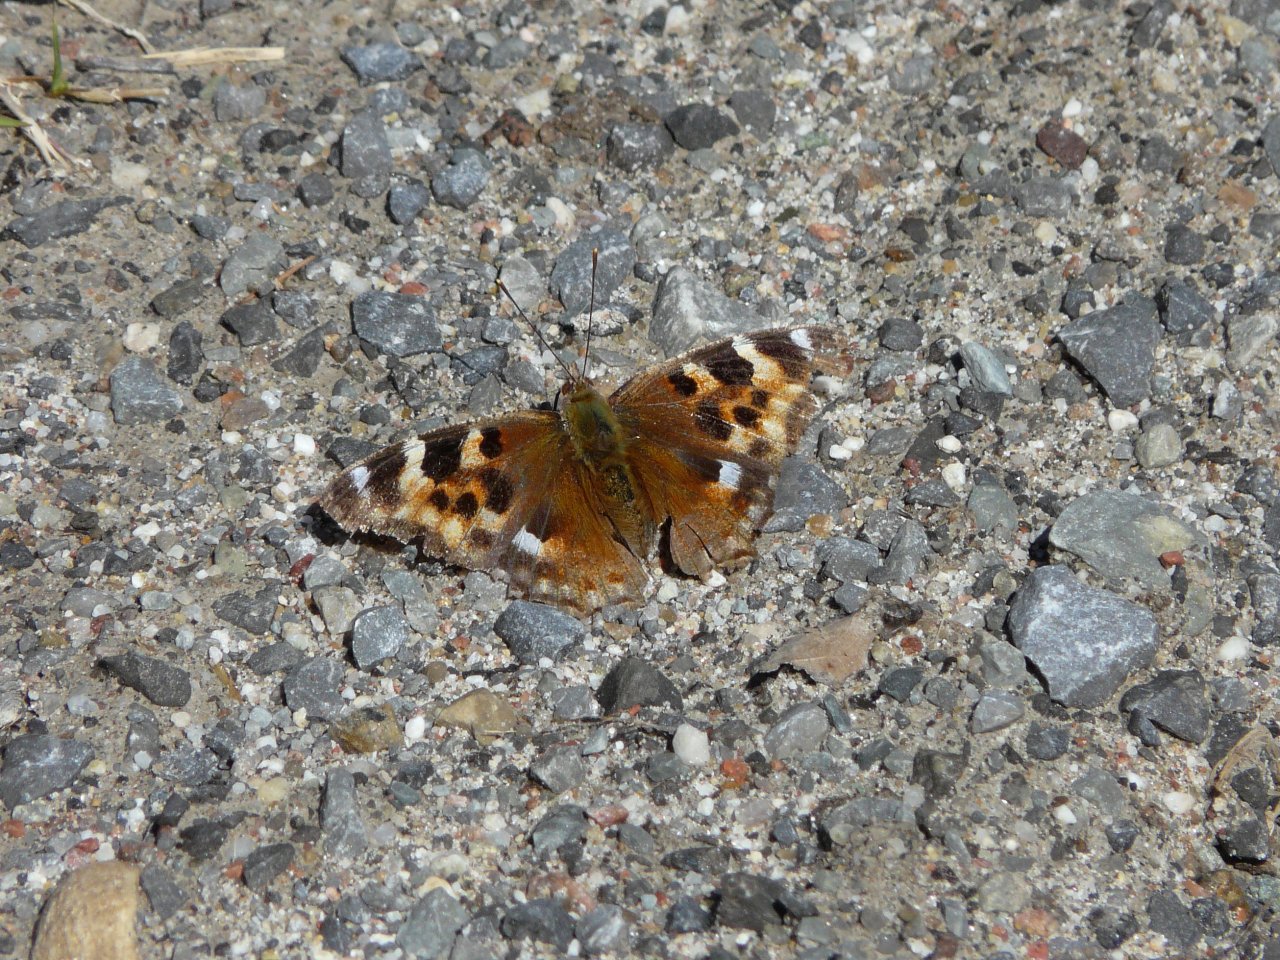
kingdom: Animalia
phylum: Arthropoda
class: Insecta
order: Lepidoptera
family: Nymphalidae
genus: Polygonia
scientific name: Polygonia vaualbum
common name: Compton Tortoiseshell
